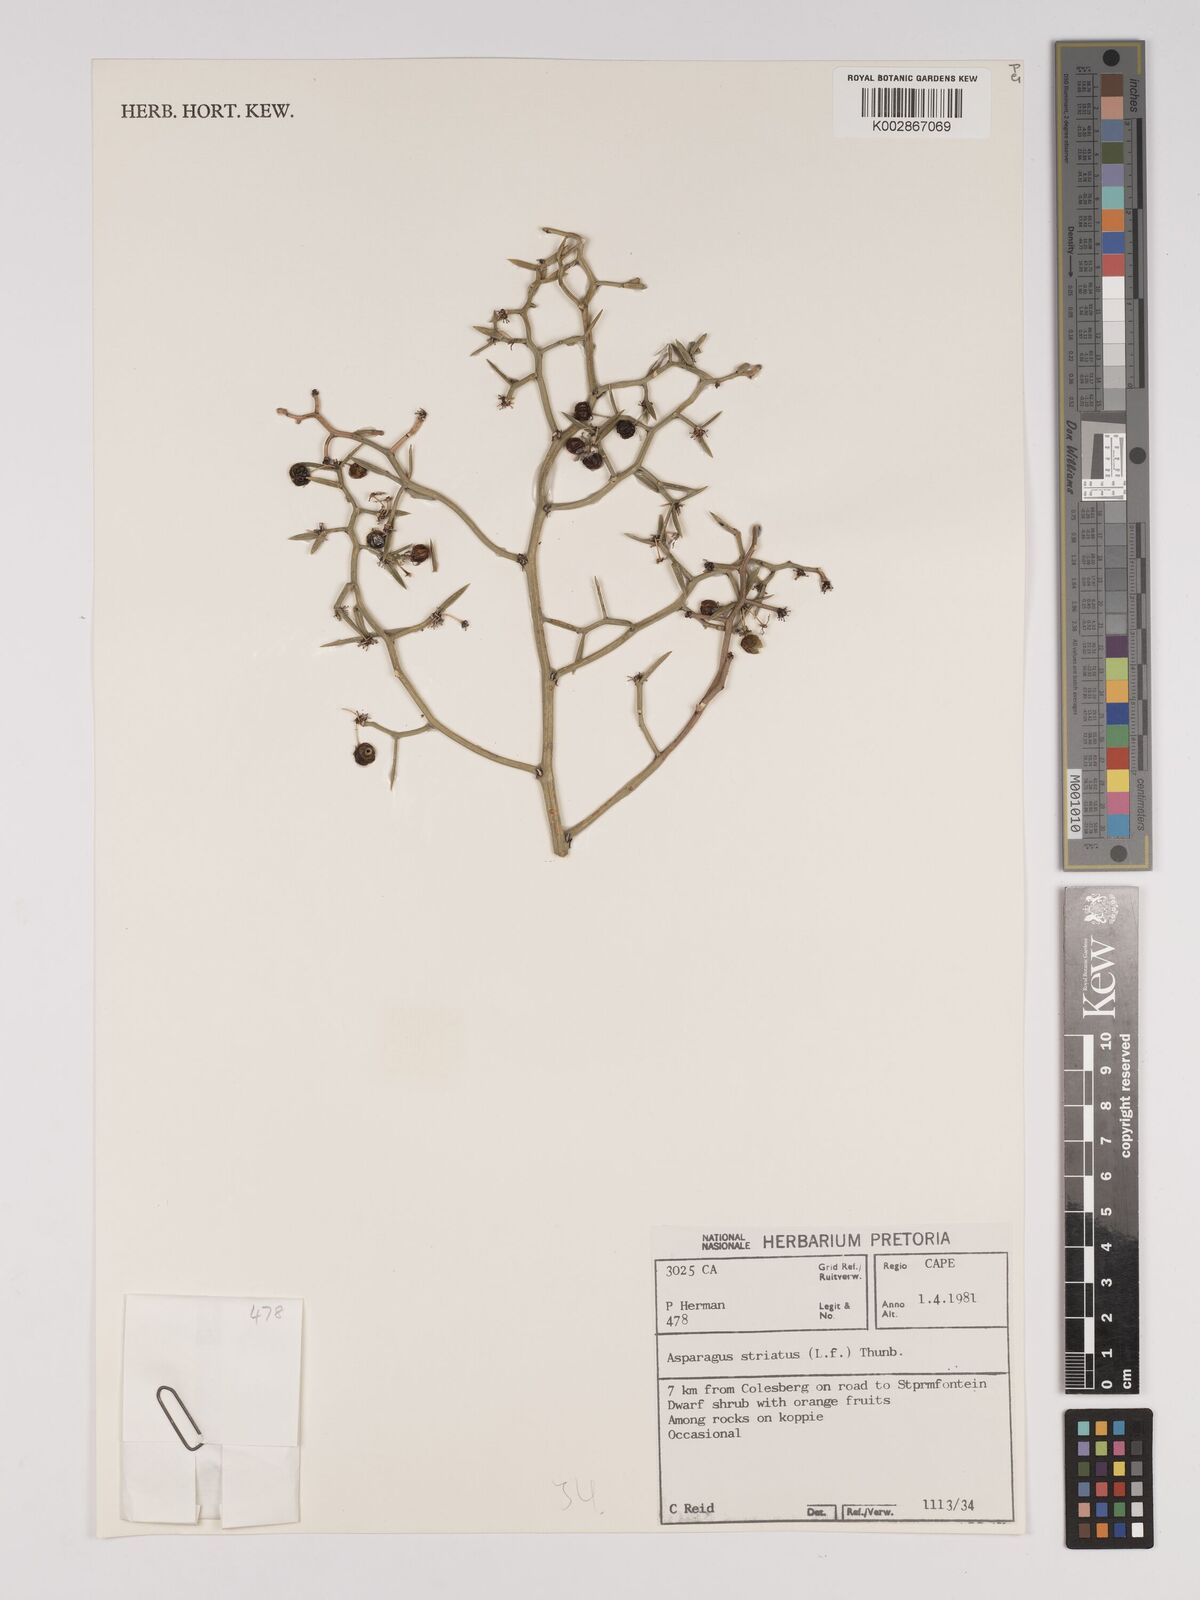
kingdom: Plantae
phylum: Tracheophyta
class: Liliopsida
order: Asparagales
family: Asparagaceae
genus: Asparagus
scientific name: Asparagus striatus
